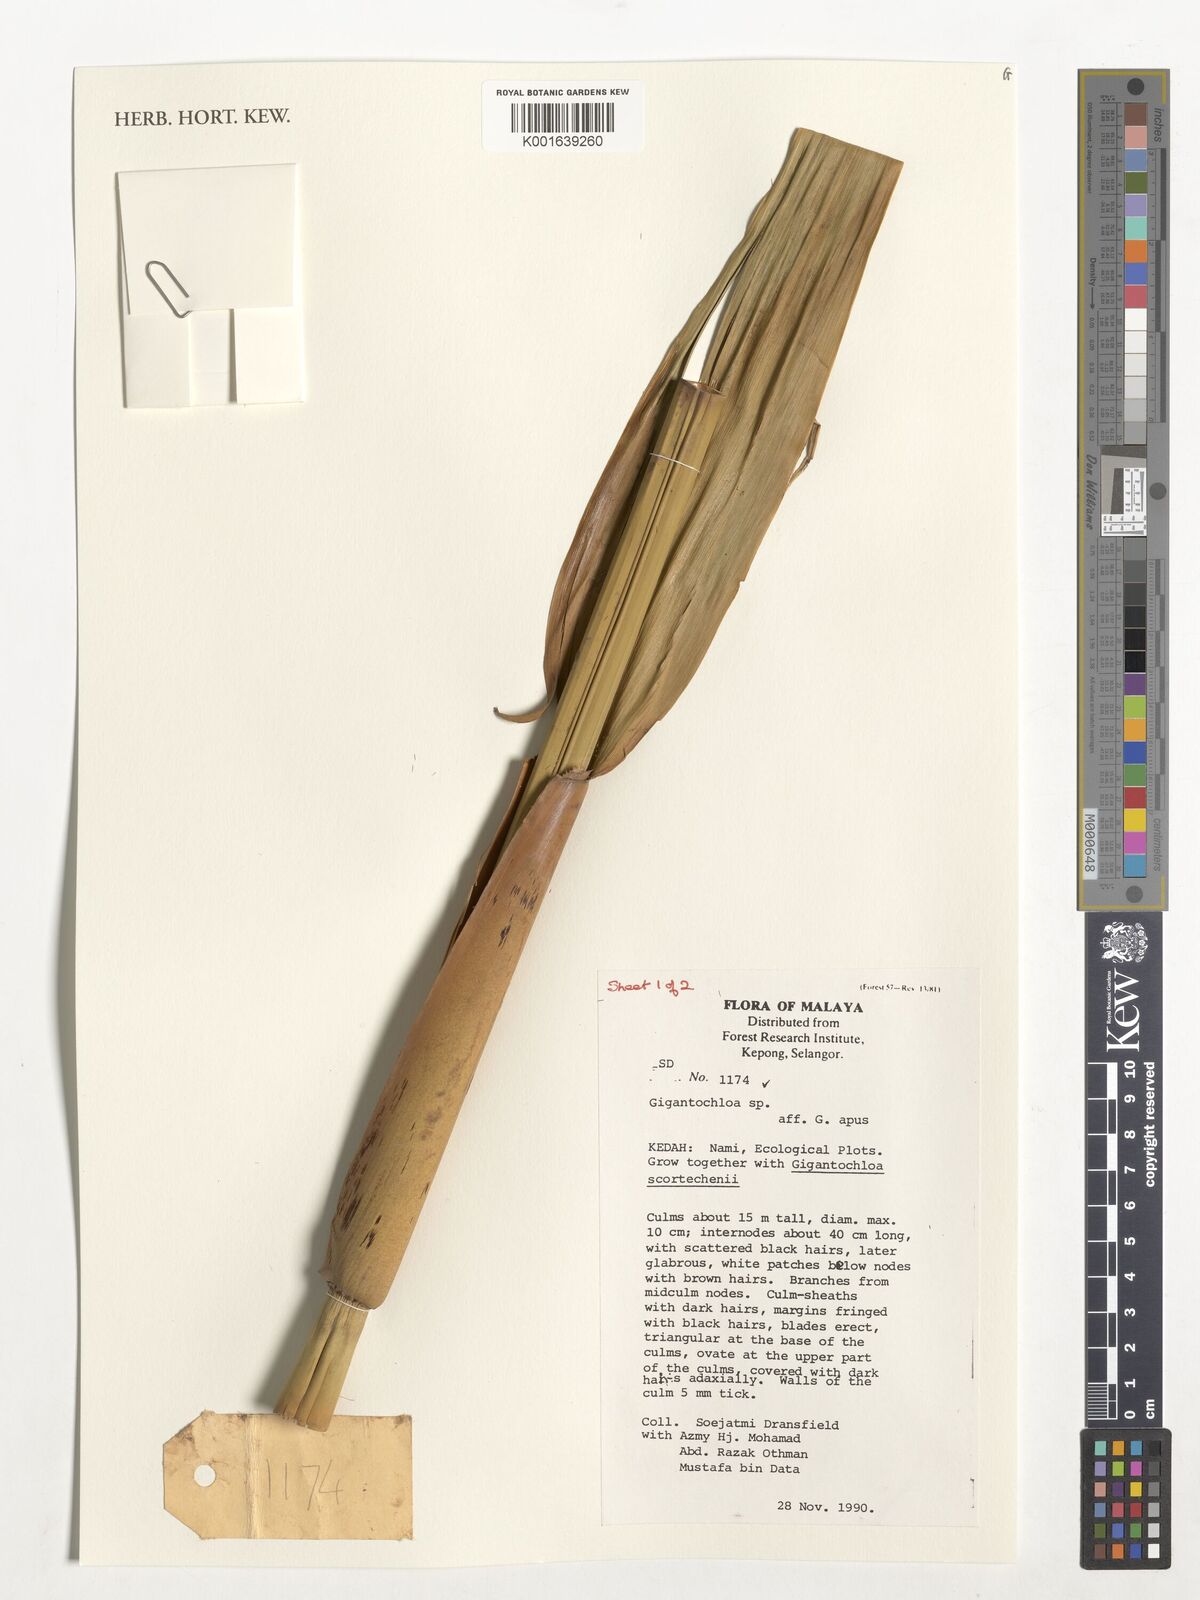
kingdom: Plantae
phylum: Tracheophyta
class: Liliopsida
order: Poales
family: Poaceae
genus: Gigantochloa
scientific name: Gigantochloa apus
